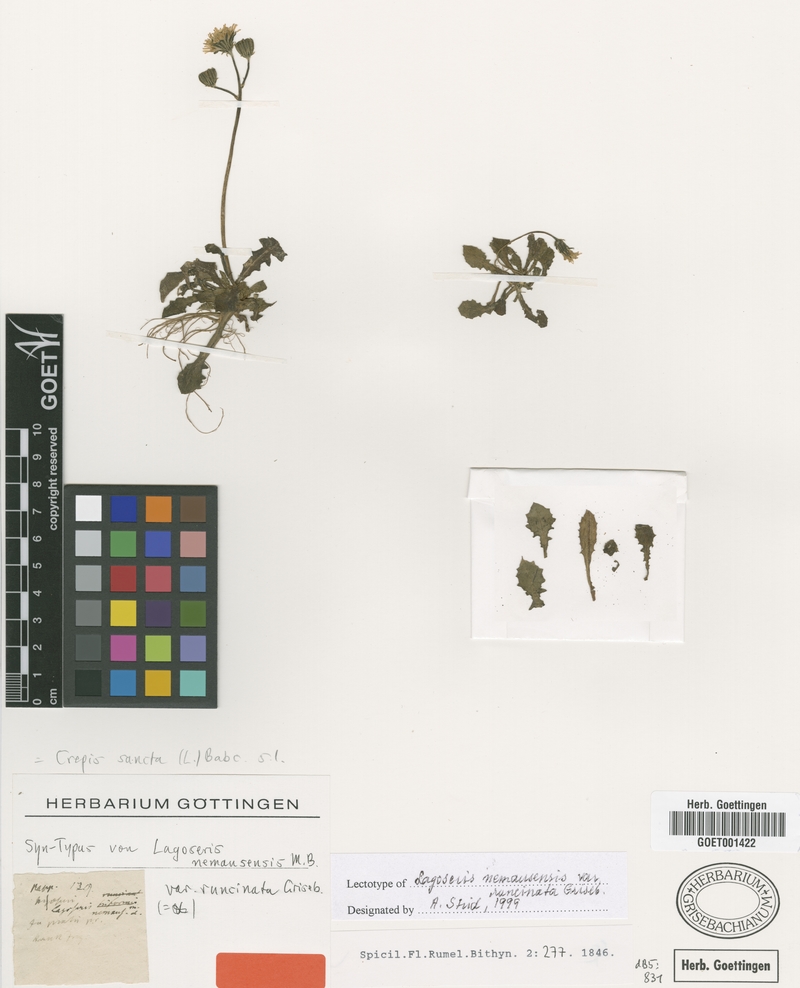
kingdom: Plantae
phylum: Tracheophyta
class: Magnoliopsida
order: Asterales
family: Asteraceae
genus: Crepis
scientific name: Crepis sancta
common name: Hawk's-beard
